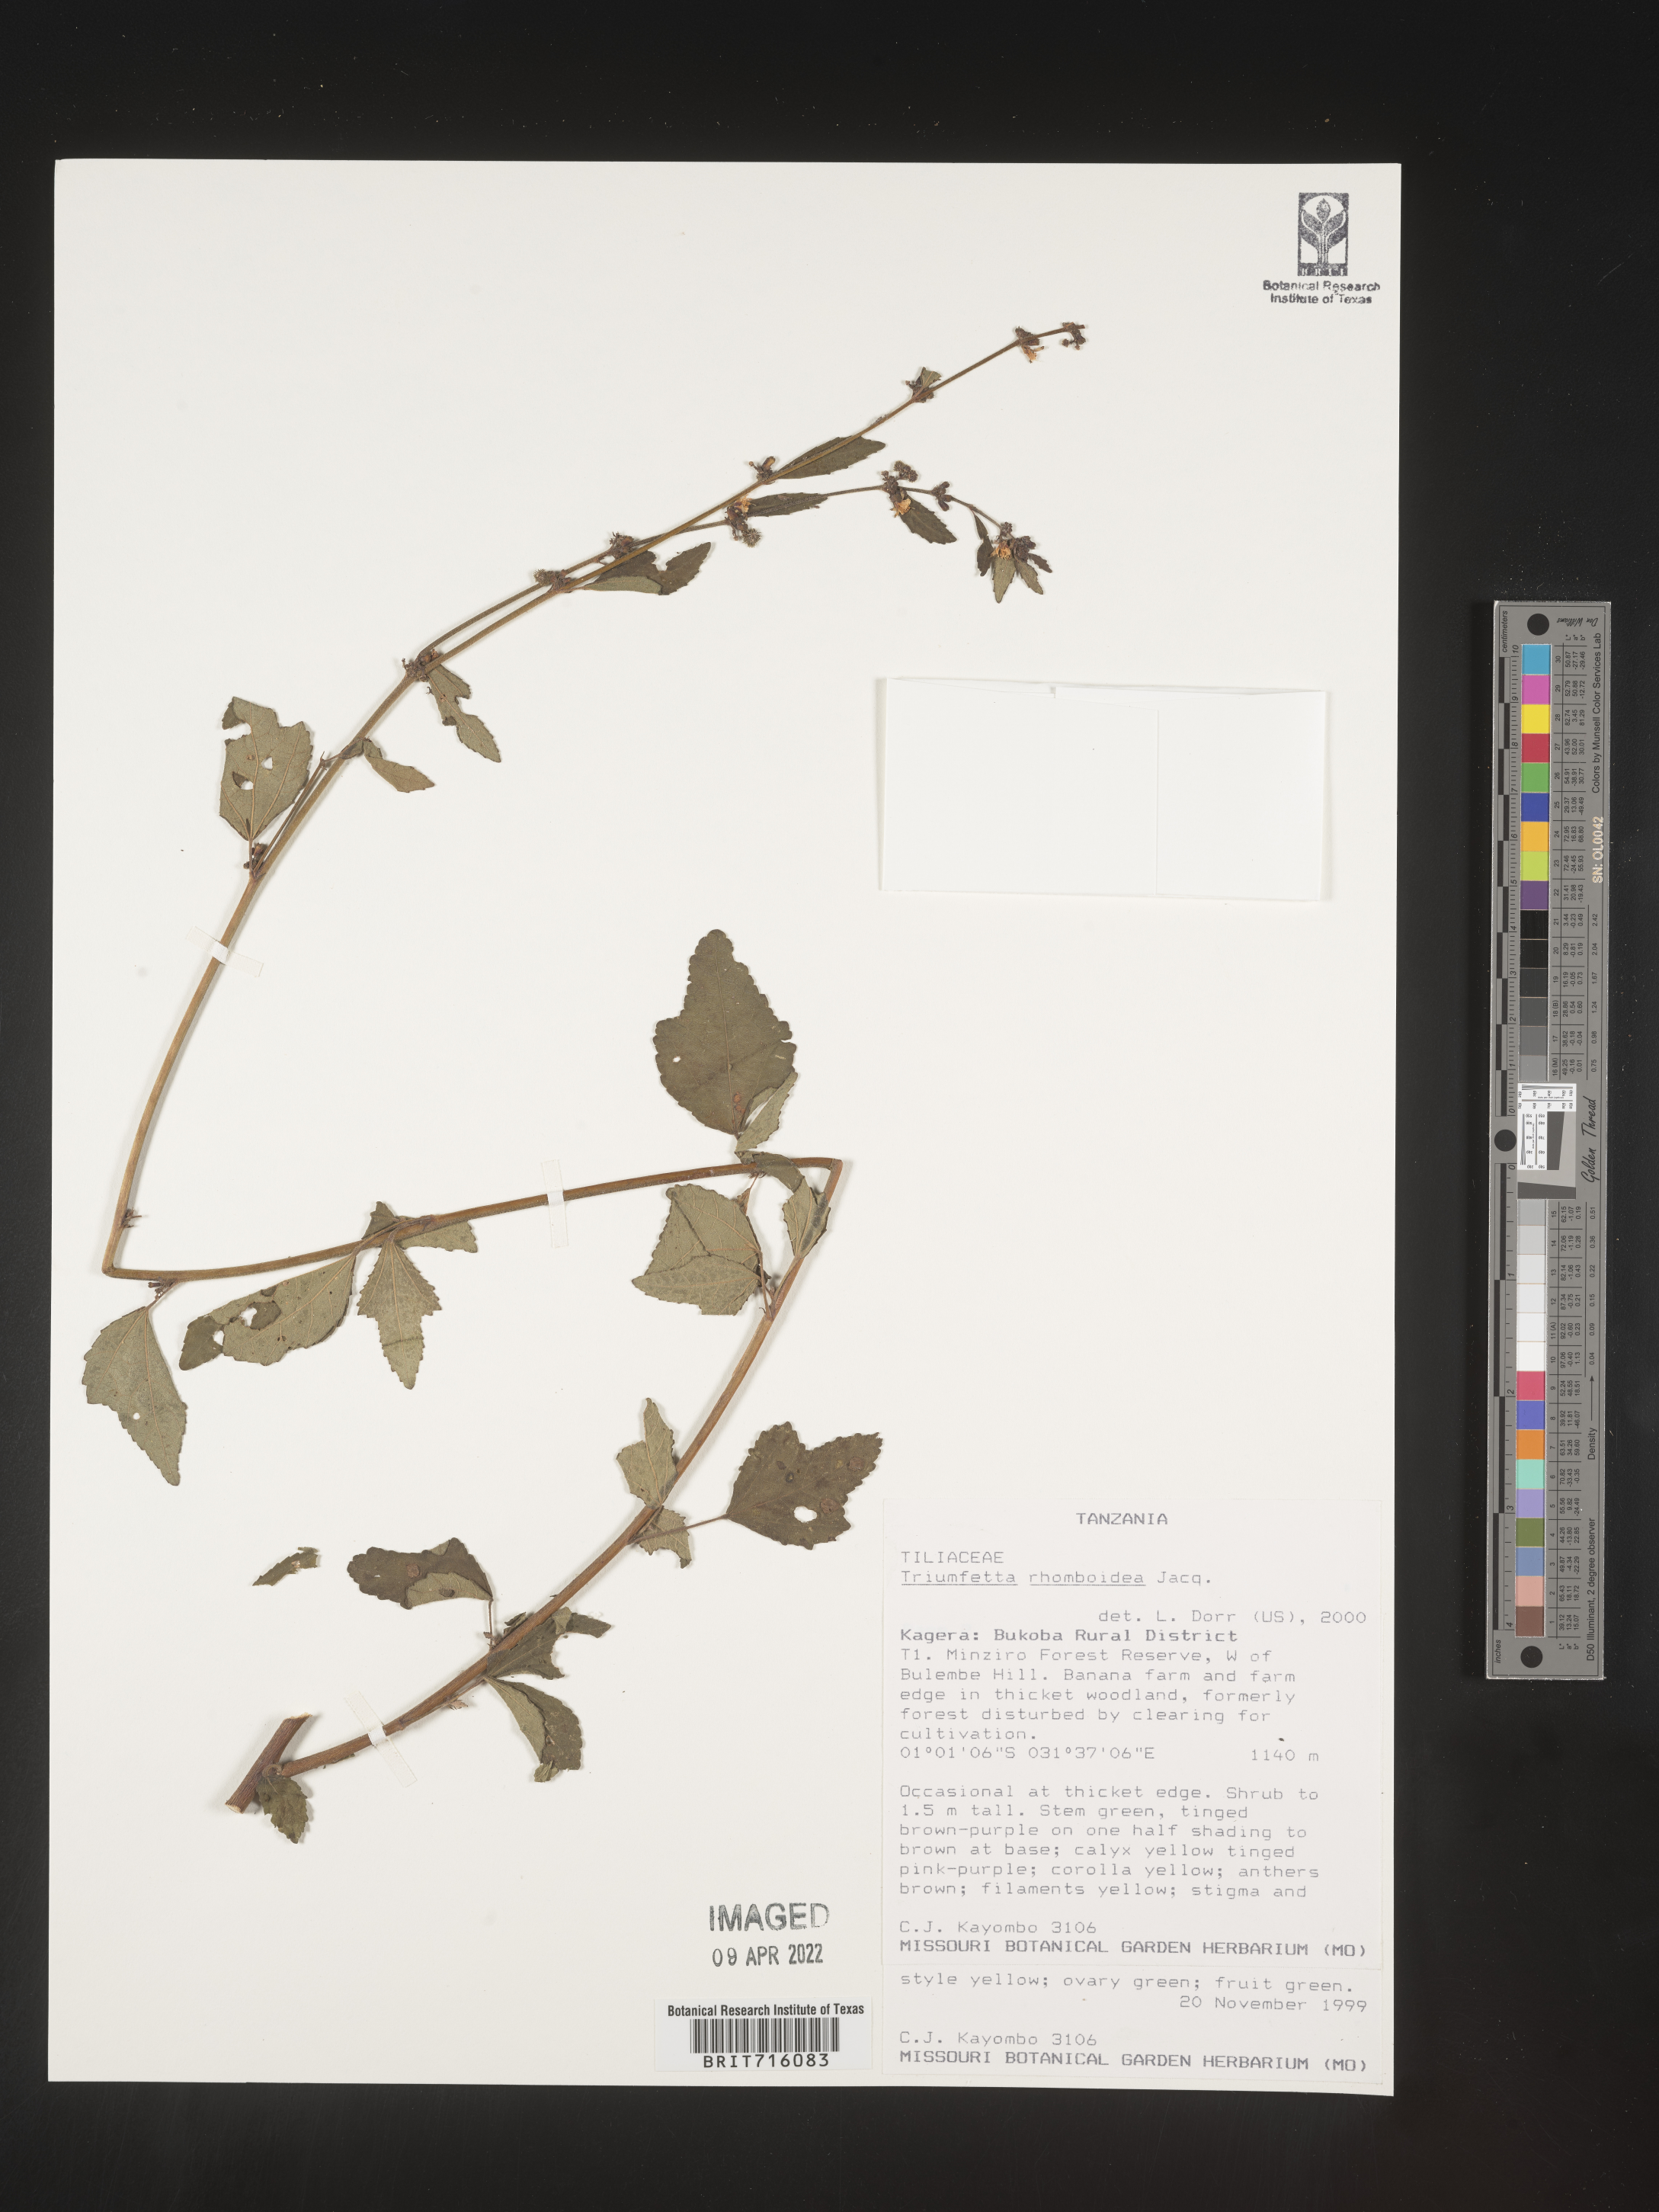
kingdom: Plantae
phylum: Tracheophyta
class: Magnoliopsida
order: Malvales
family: Malvaceae
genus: Triumfetta
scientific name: Triumfetta rhomboidea
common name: Diamond burbark
